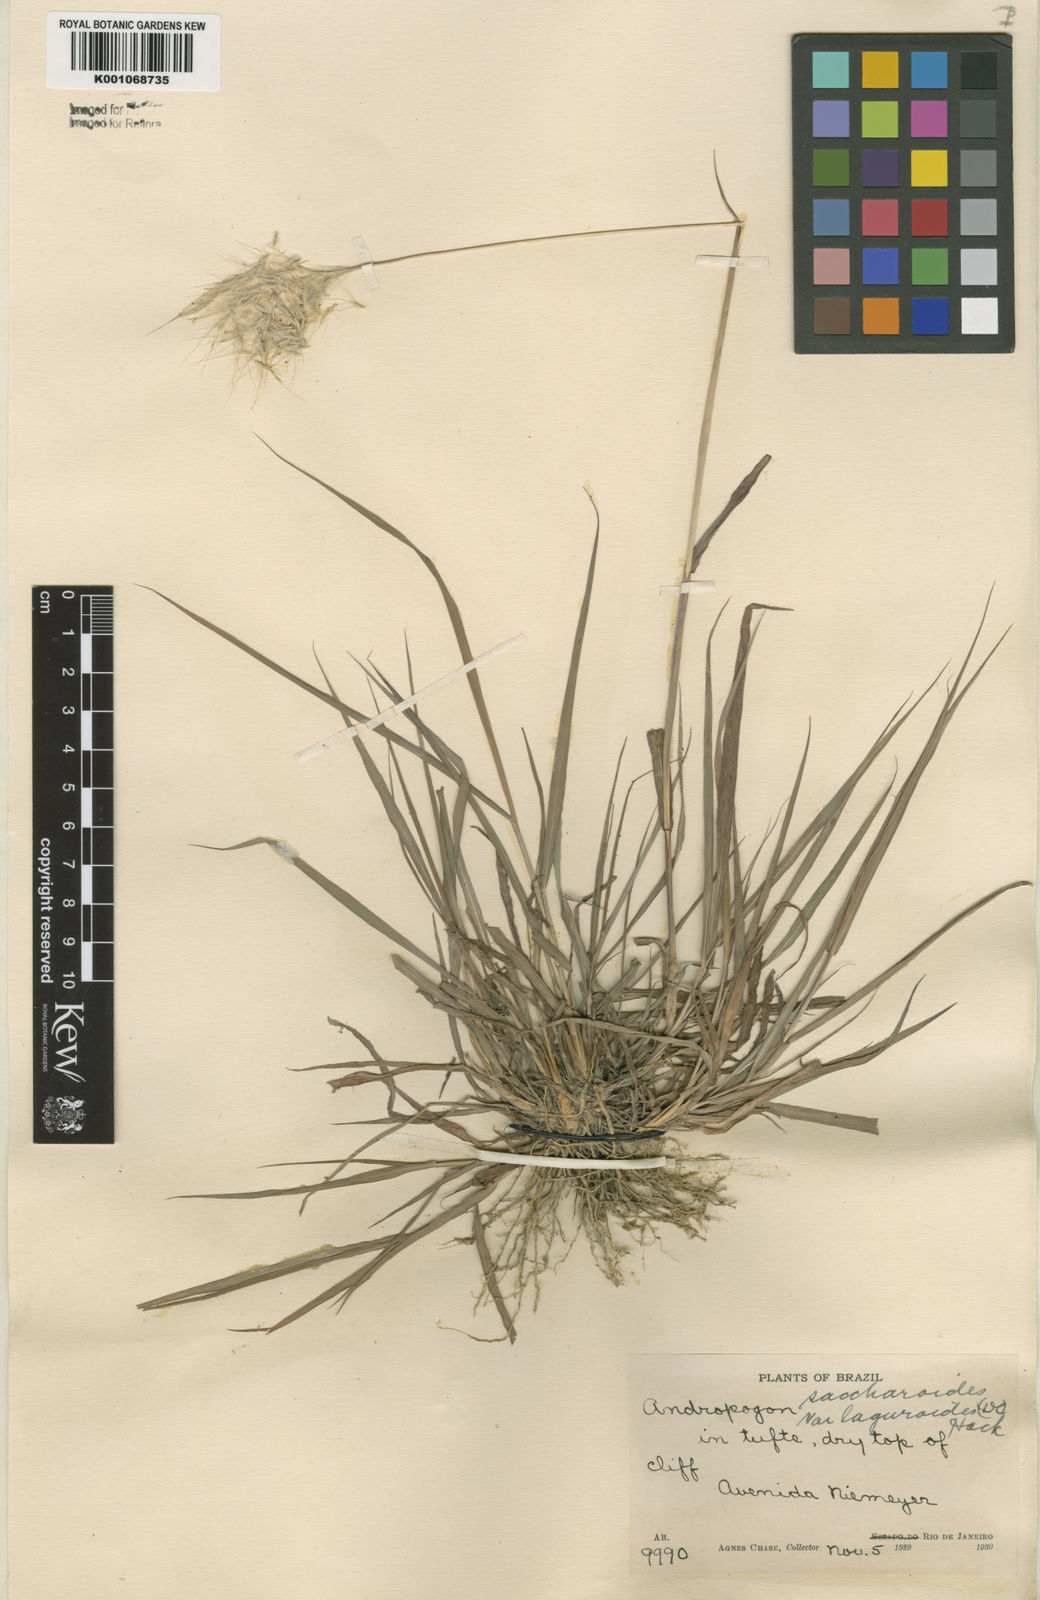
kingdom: Plantae
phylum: Tracheophyta
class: Liliopsida
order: Poales
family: Poaceae
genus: Bothriochloa
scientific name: Bothriochloa laguroides
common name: Silver bluestem
